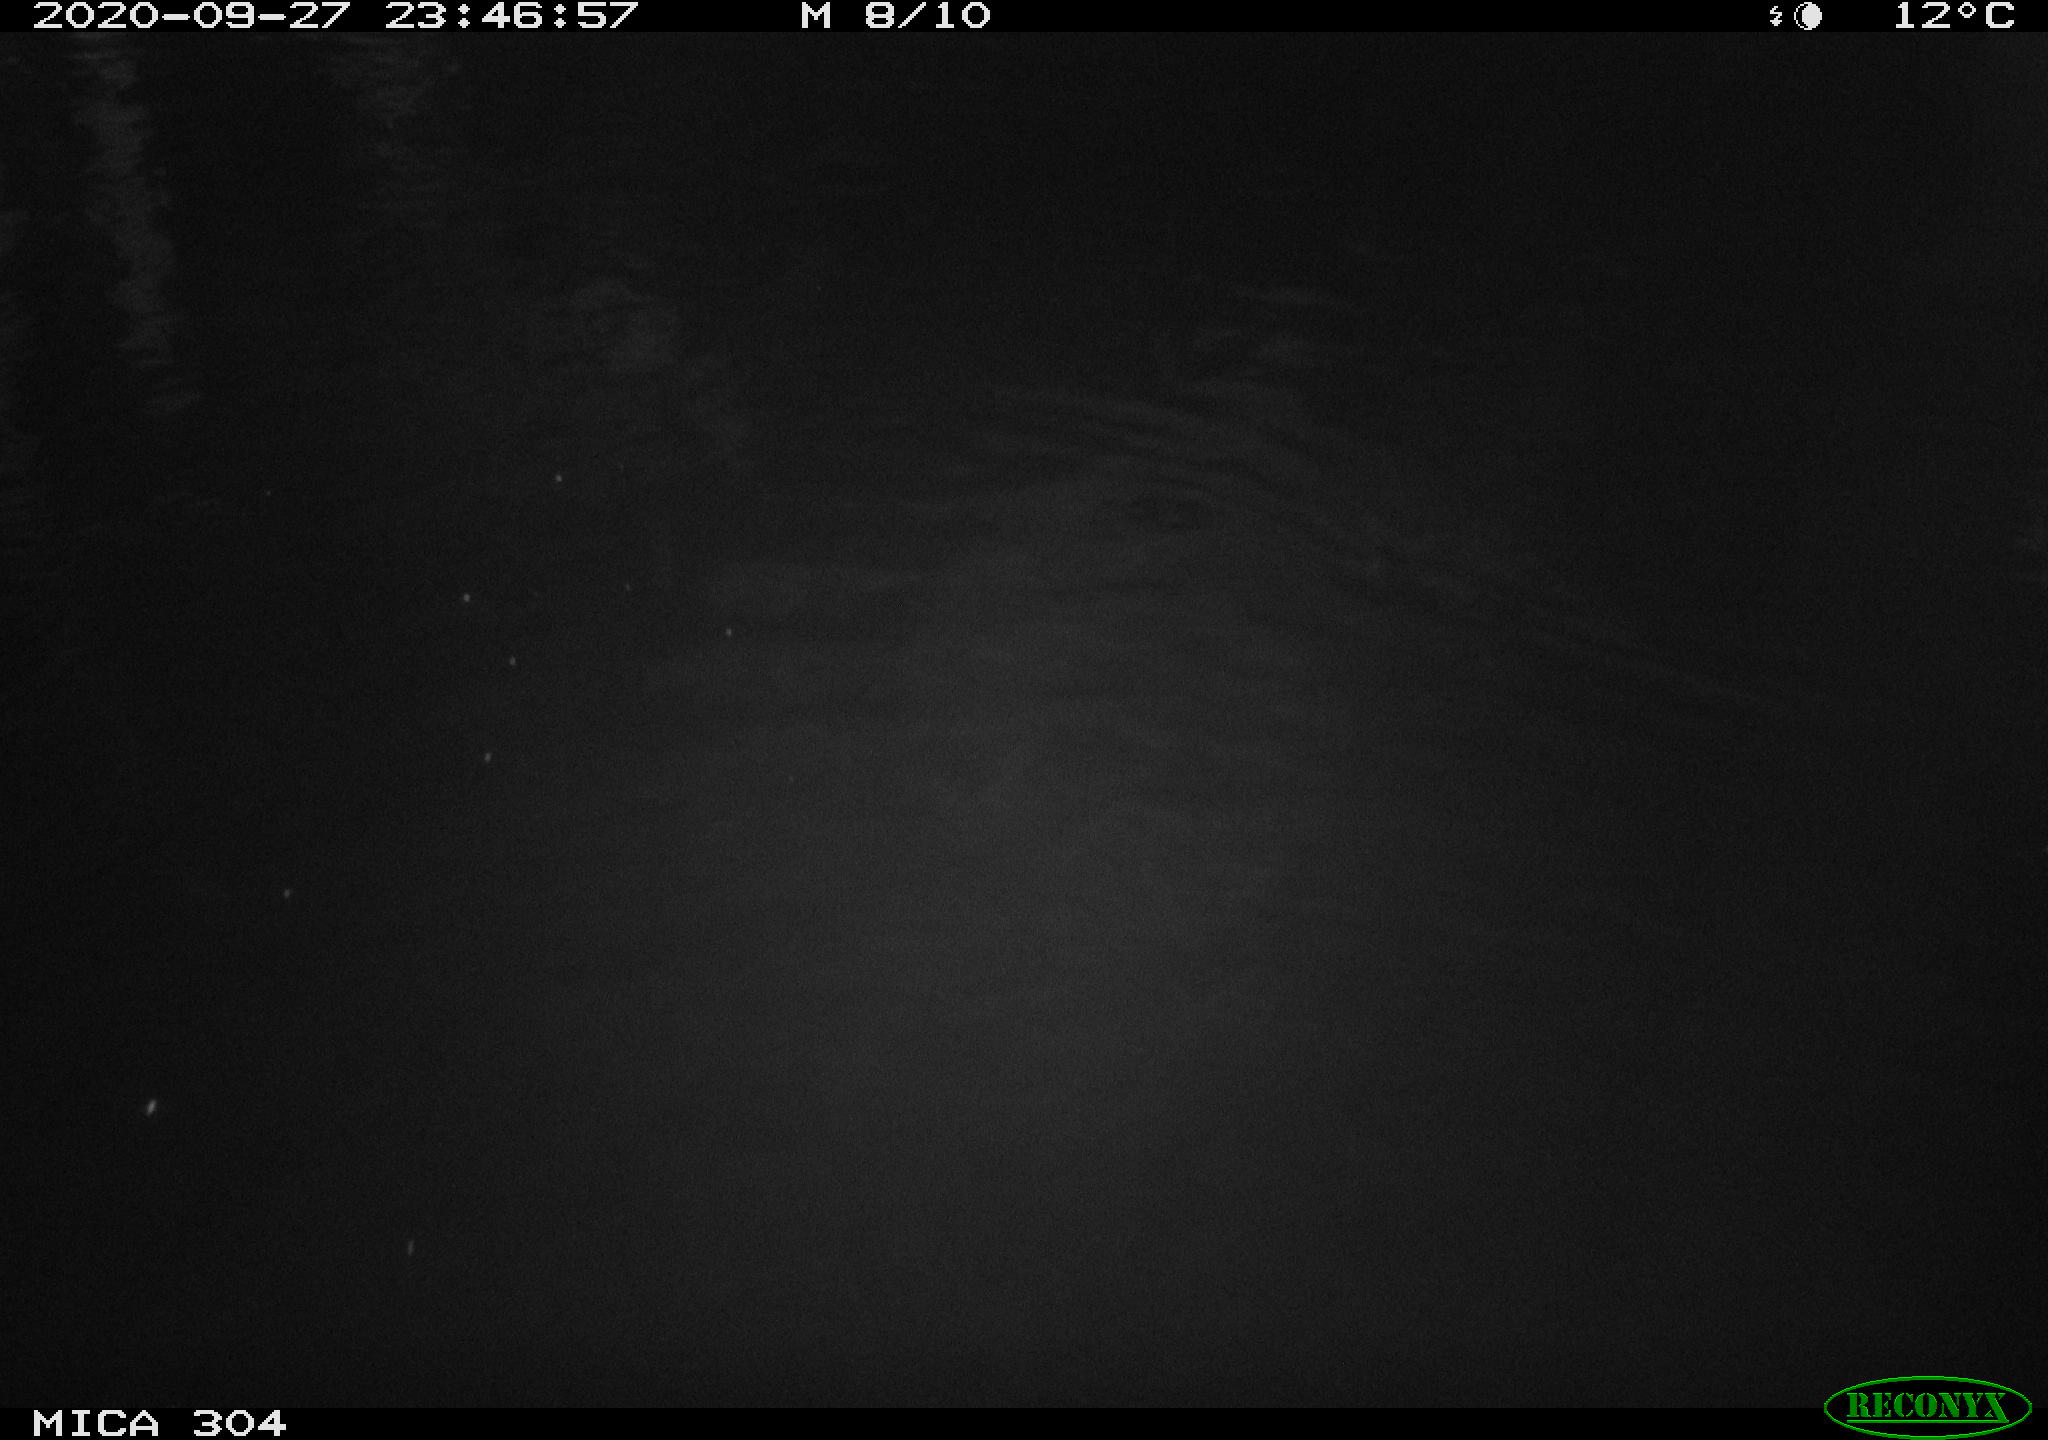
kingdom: Animalia
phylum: Chordata
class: Mammalia
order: Rodentia
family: Muridae
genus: Rattus
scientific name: Rattus norvegicus
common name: Brown rat
